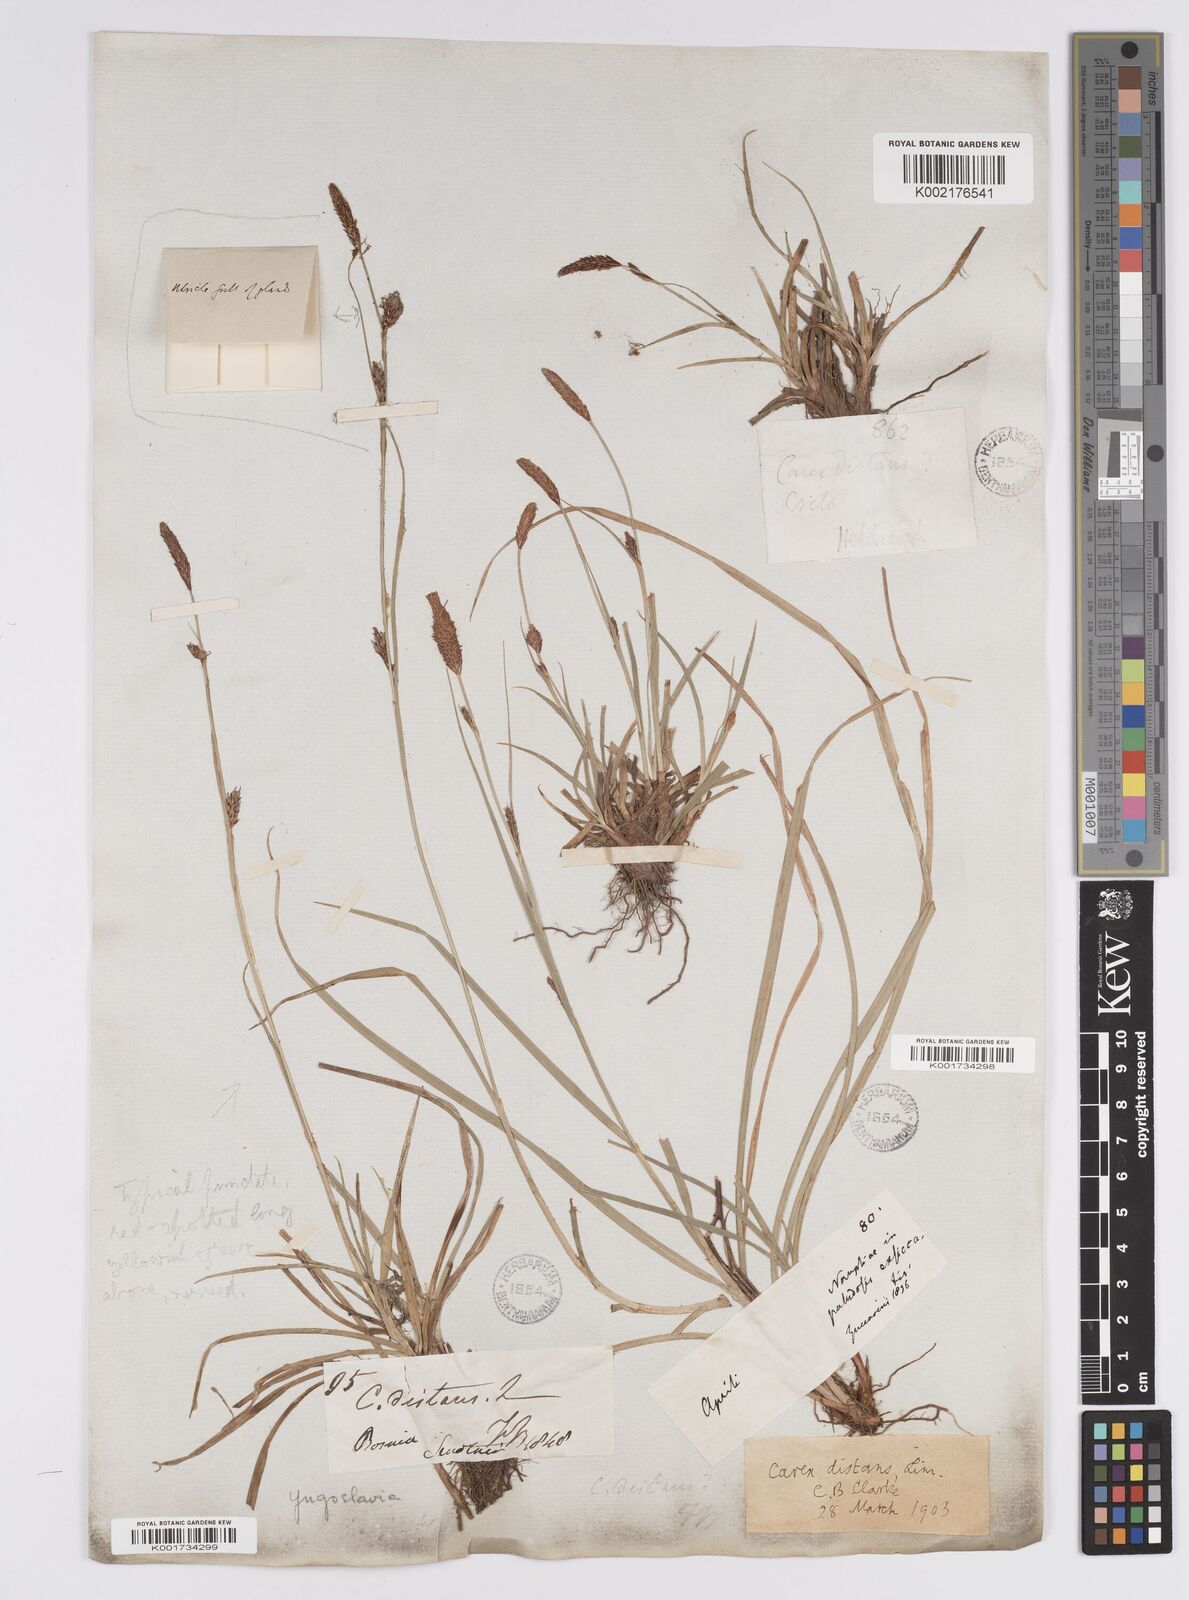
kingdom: Plantae
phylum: Tracheophyta
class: Liliopsida
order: Poales
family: Cyperaceae
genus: Carex
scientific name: Carex distans
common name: Distant sedge
